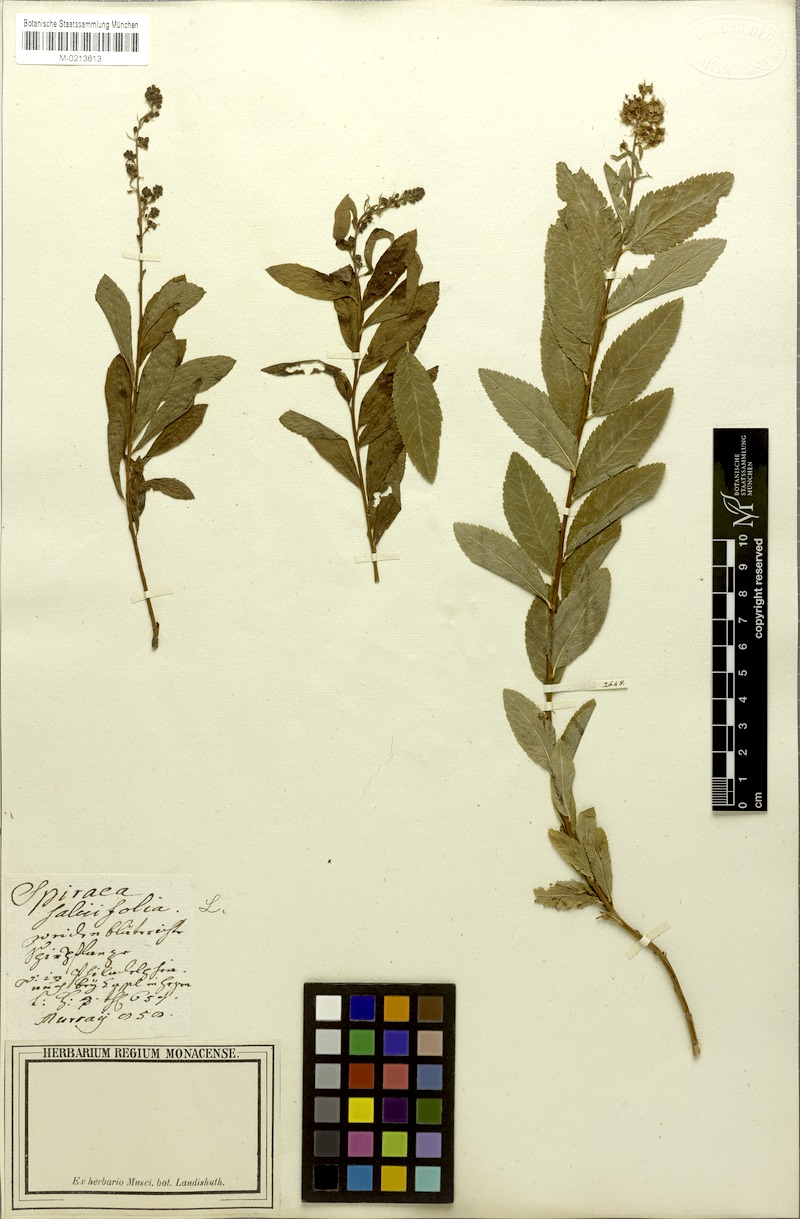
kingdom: Plantae
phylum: Tracheophyta
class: Magnoliopsida
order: Rosales
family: Rosaceae
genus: Spiraea
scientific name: Spiraea salicifolia
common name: Bridewort
